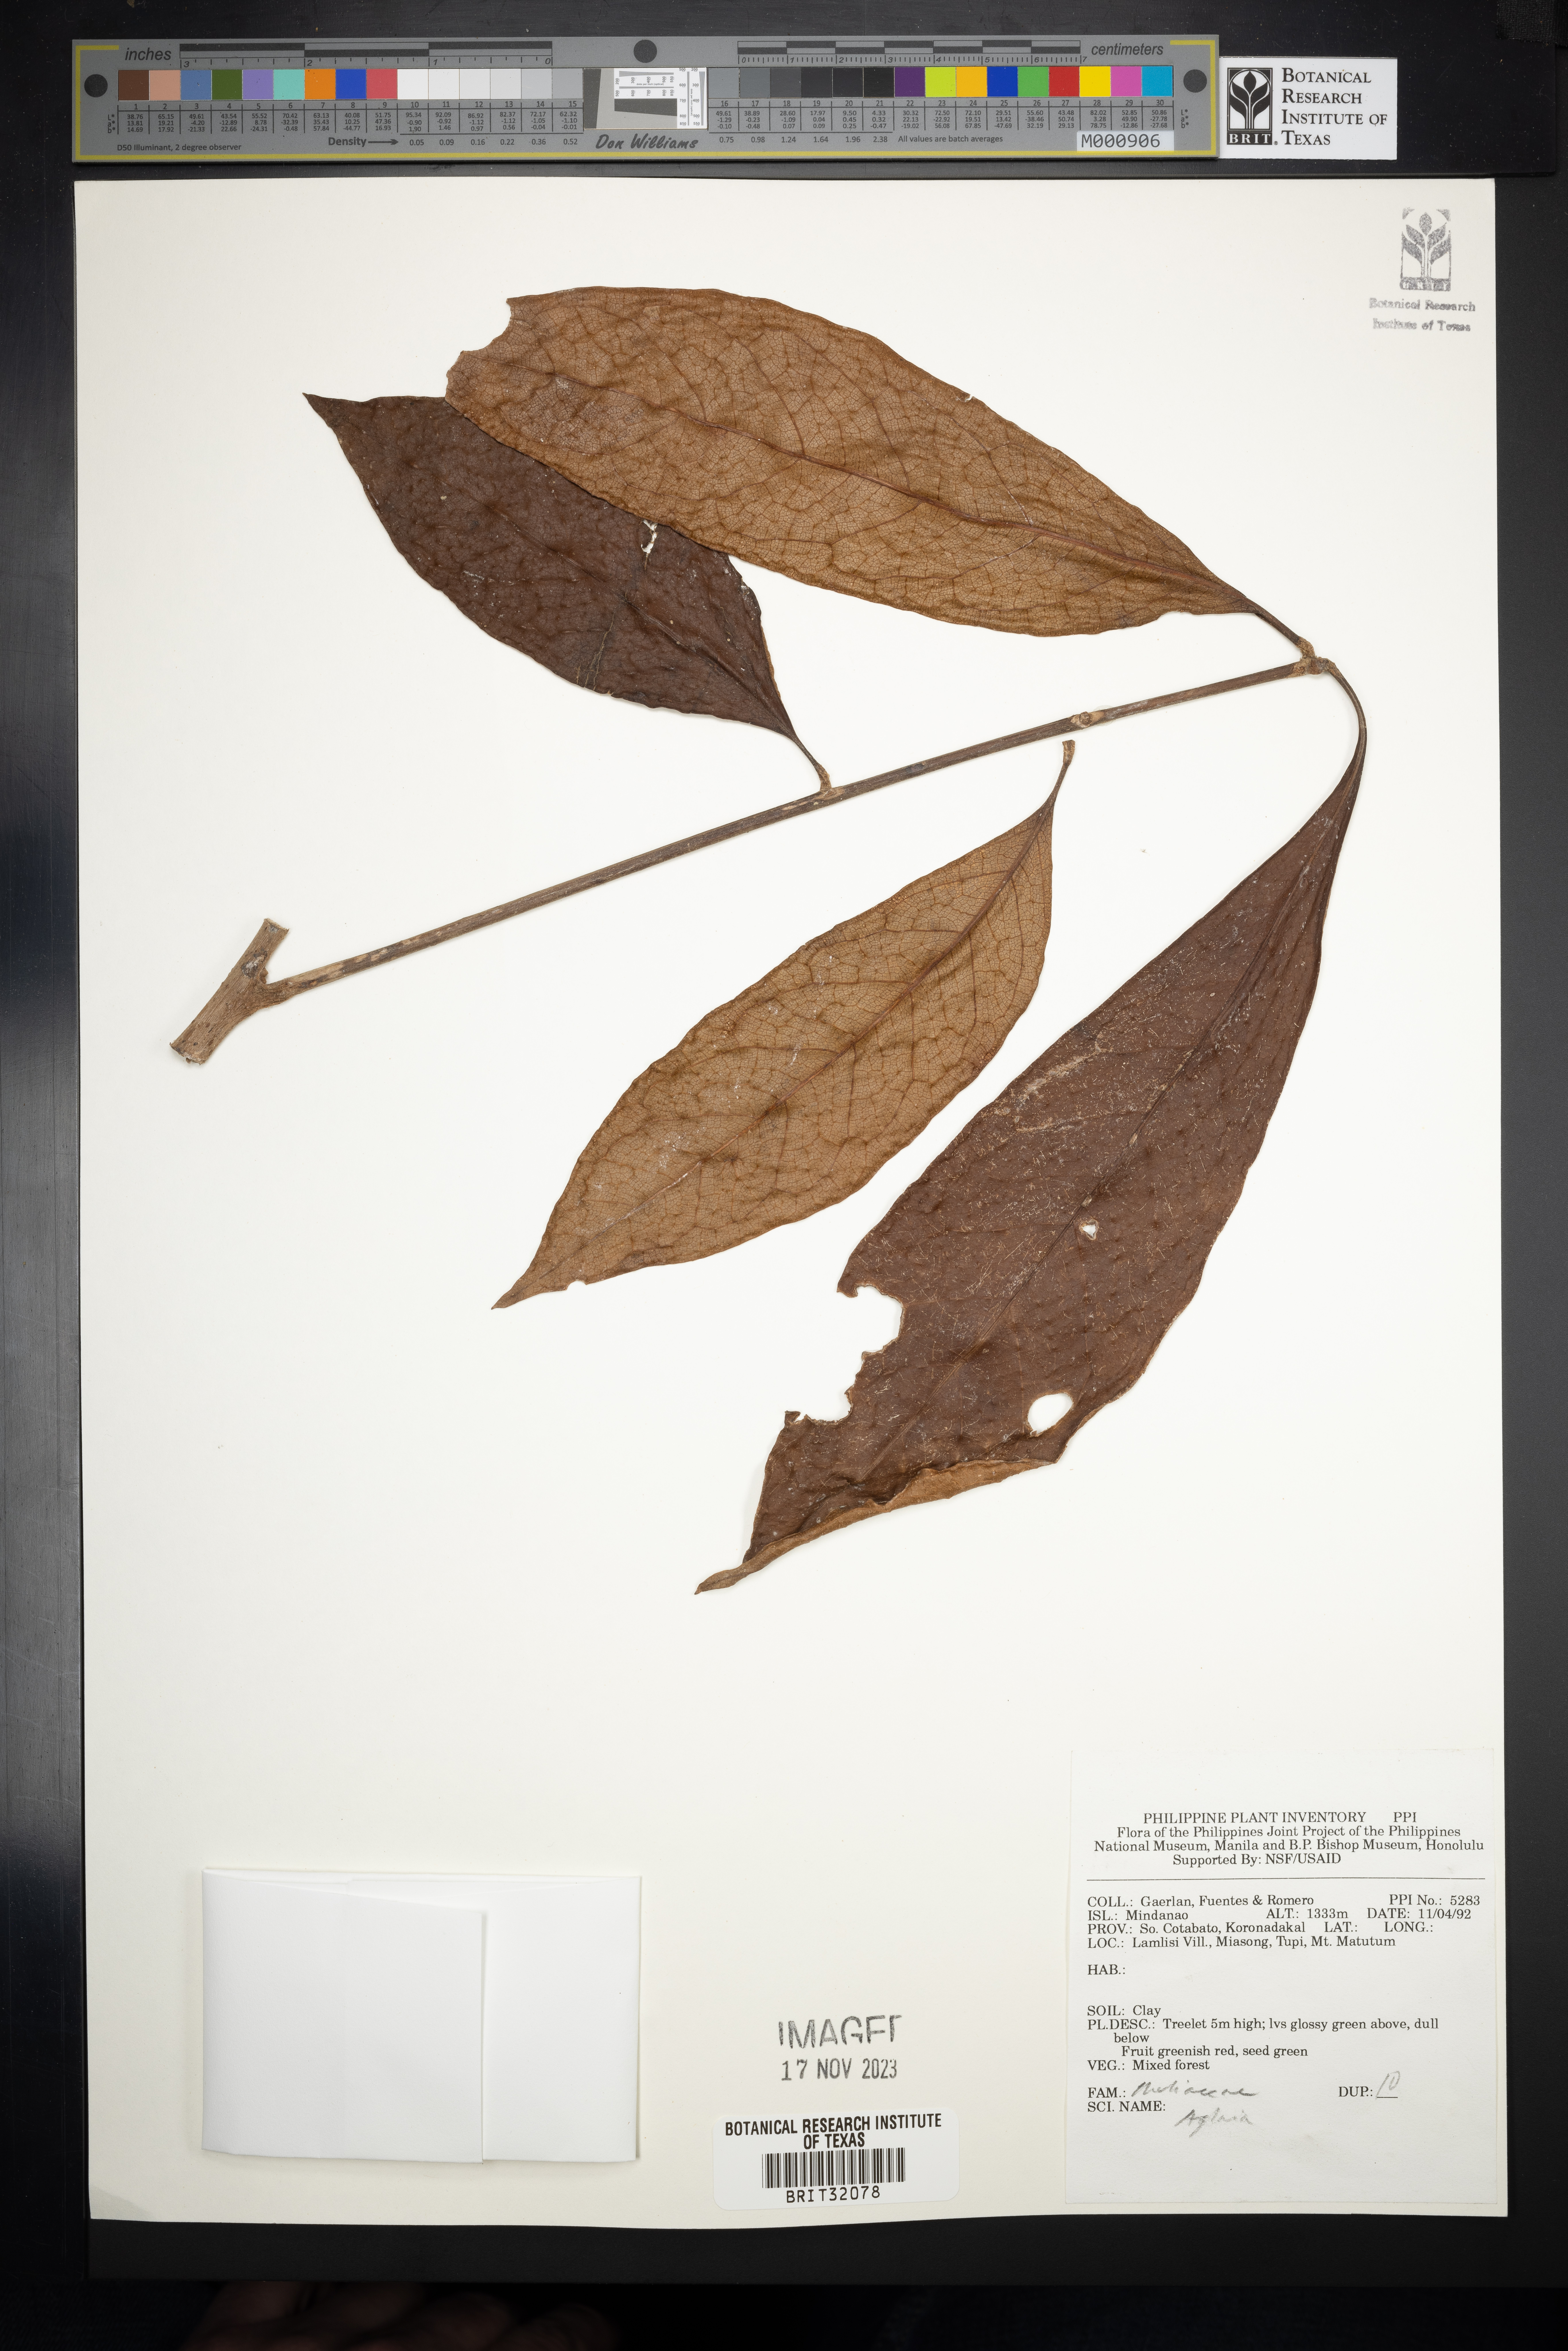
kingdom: Plantae
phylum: Tracheophyta
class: Magnoliopsida
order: Sapindales
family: Meliaceae
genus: Aglaia
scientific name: Aglaia
